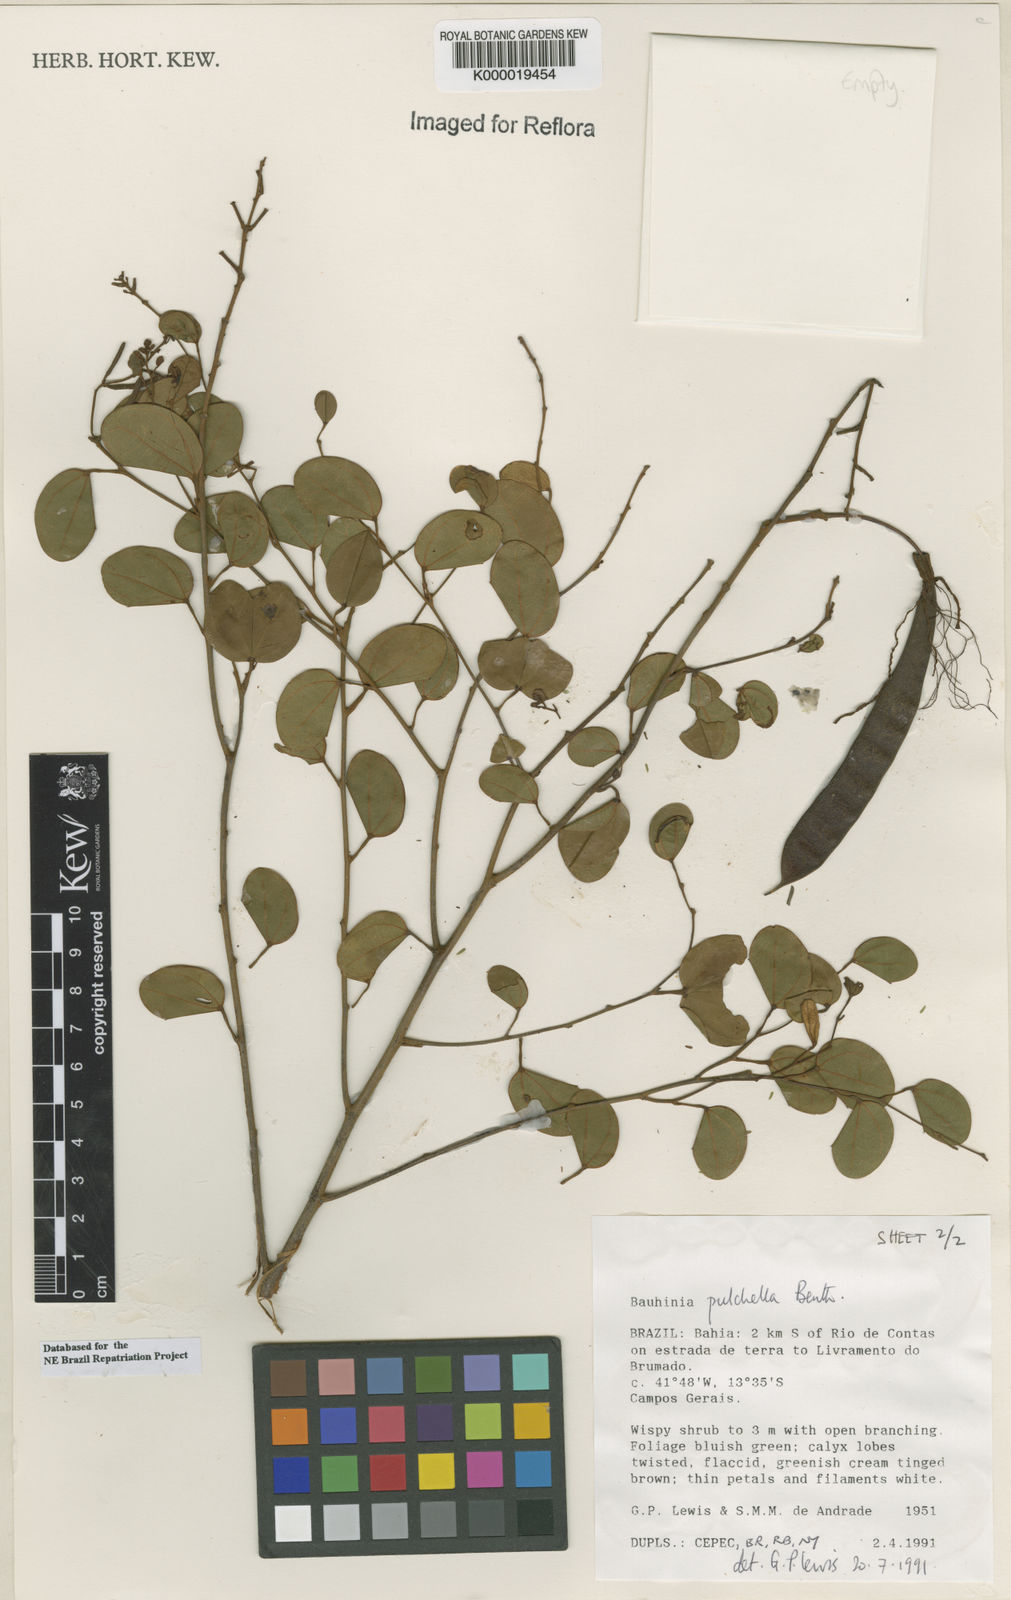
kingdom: Plantae
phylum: Tracheophyta
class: Magnoliopsida
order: Fabales
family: Fabaceae
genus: Bauhinia
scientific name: Bauhinia pulchella
